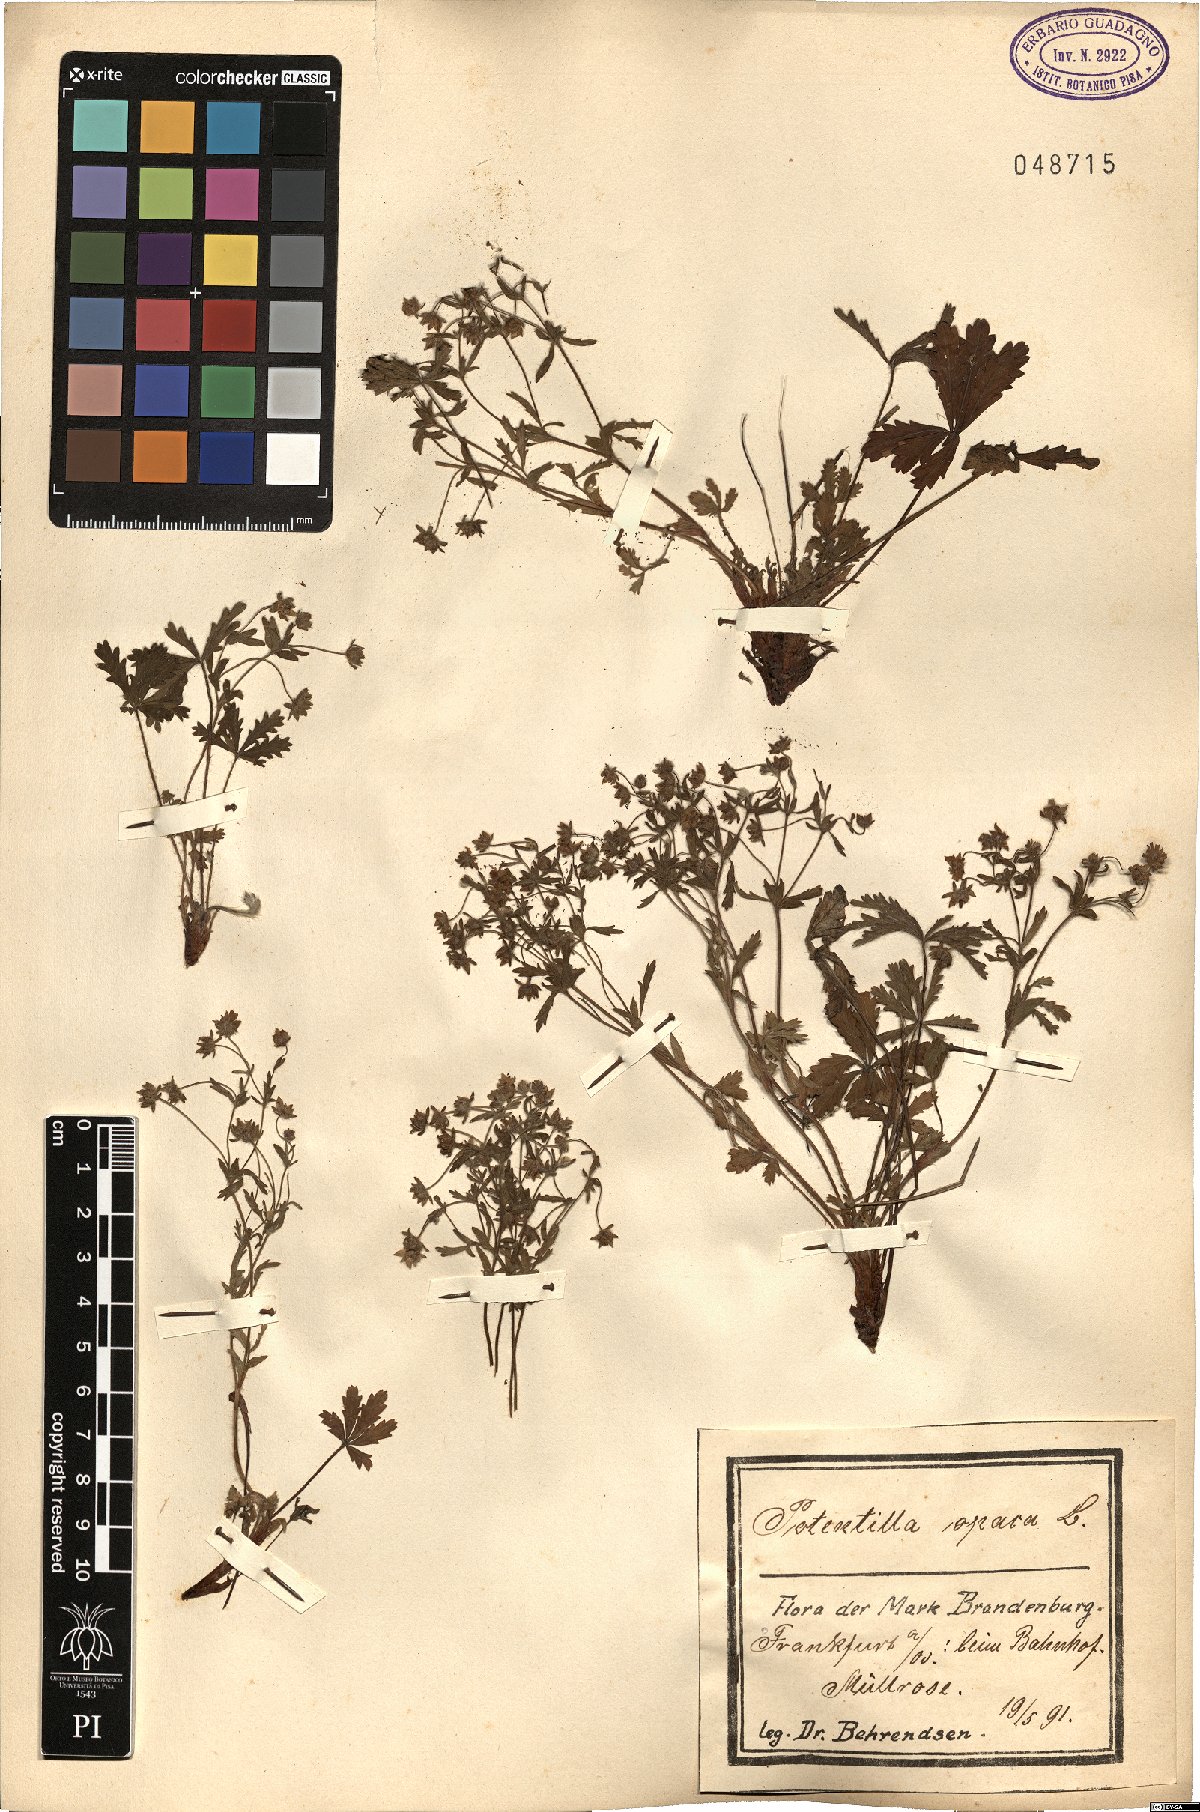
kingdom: Plantae
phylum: Tracheophyta
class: Magnoliopsida
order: Rosales
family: Rosaceae
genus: Potentilla
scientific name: Potentilla
